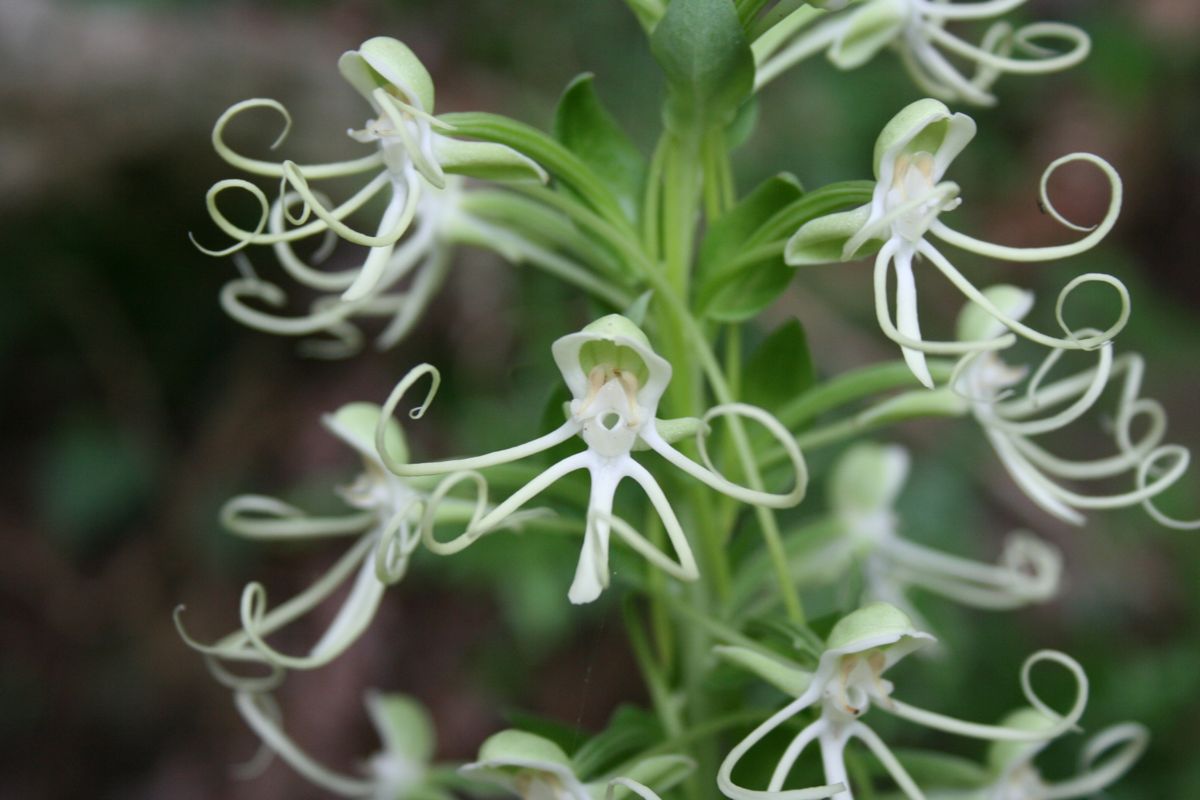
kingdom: Plantae
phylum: Tracheophyta
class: Liliopsida
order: Asparagales
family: Orchidaceae
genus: Habenaria
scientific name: Habenaria quinqueseta
